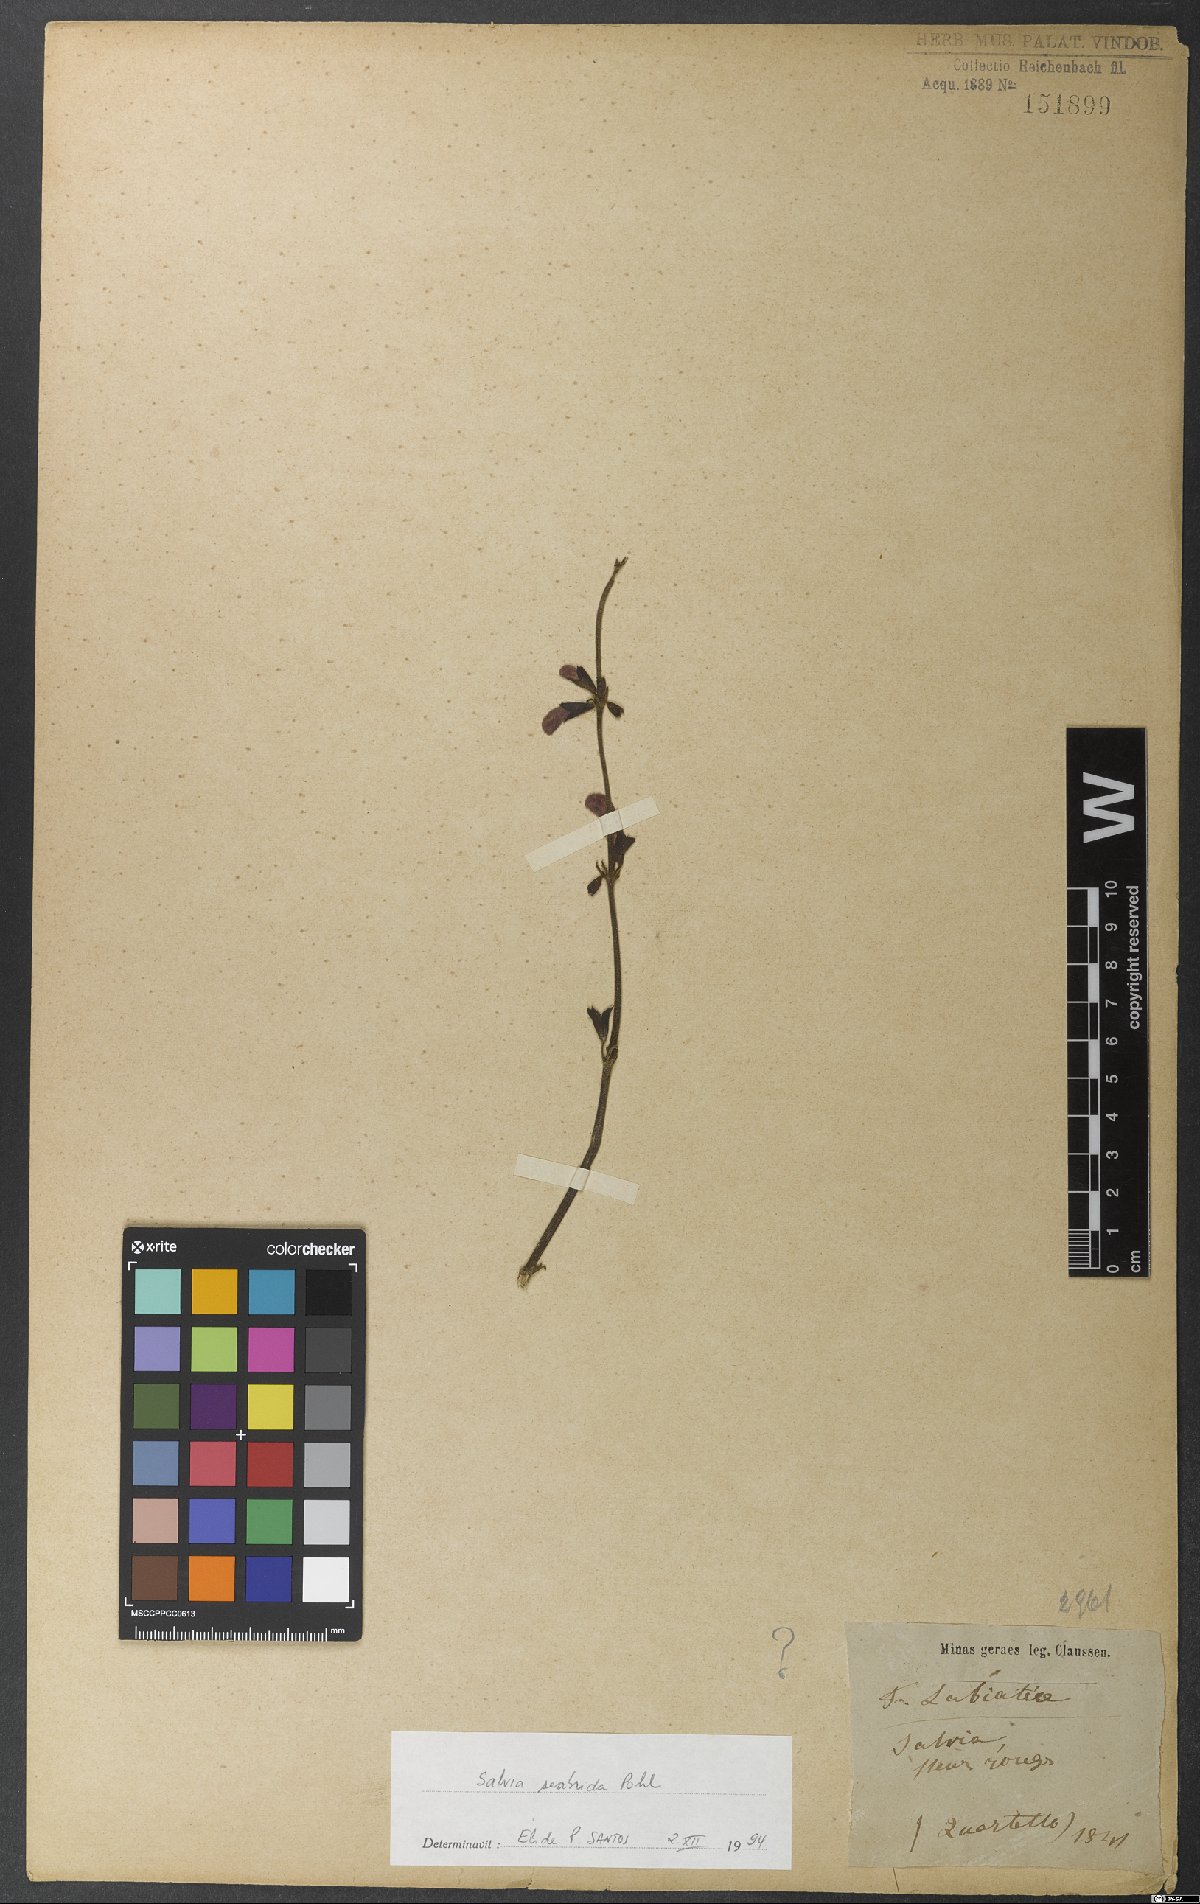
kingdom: Plantae
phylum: Tracheophyta
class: Magnoliopsida
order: Lamiales
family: Lamiaceae
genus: Salvia
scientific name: Salvia scabrida
